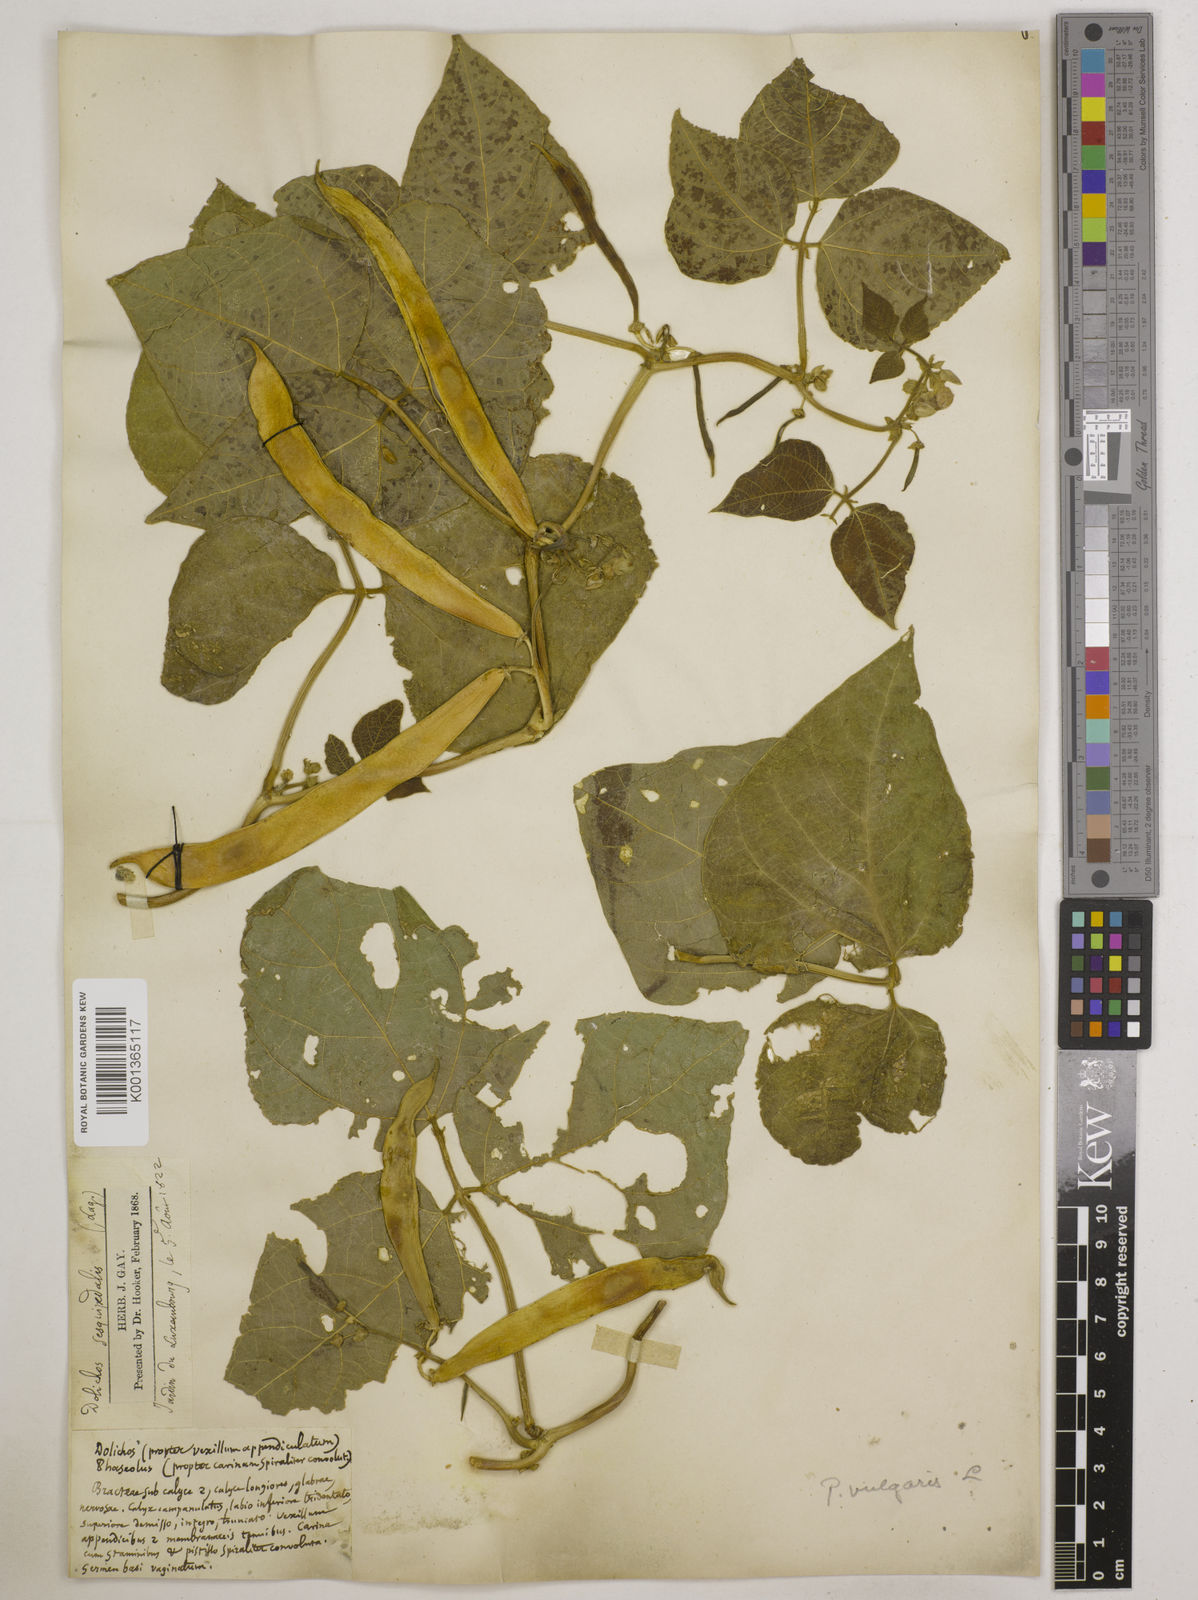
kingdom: Plantae
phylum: Tracheophyta
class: Magnoliopsida
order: Fabales
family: Fabaceae
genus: Phaseolus
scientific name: Phaseolus vulgaris
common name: Bean
